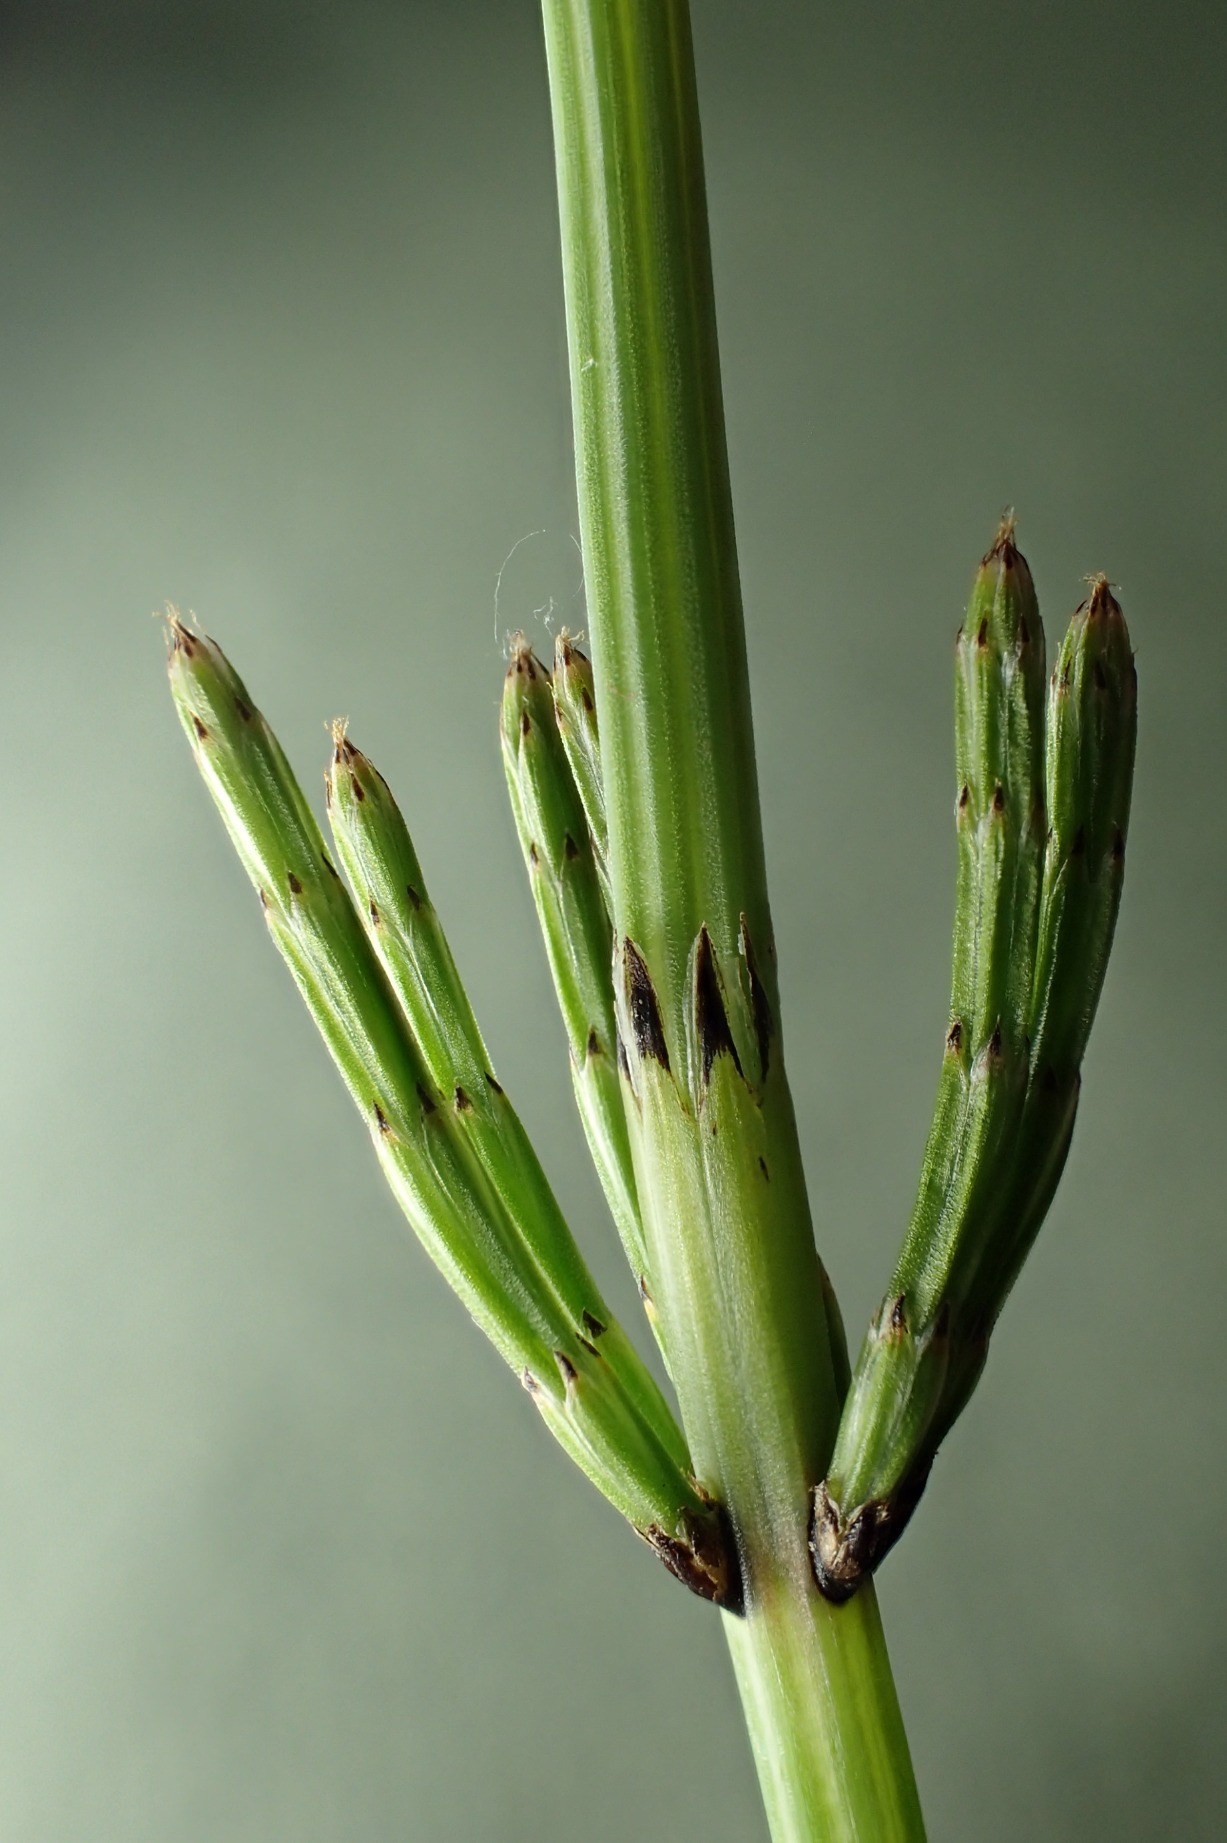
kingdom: Plantae
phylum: Tracheophyta
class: Polypodiopsida
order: Equisetales
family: Equisetaceae
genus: Equisetum
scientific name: Equisetum palustre
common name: Kær-padderok
